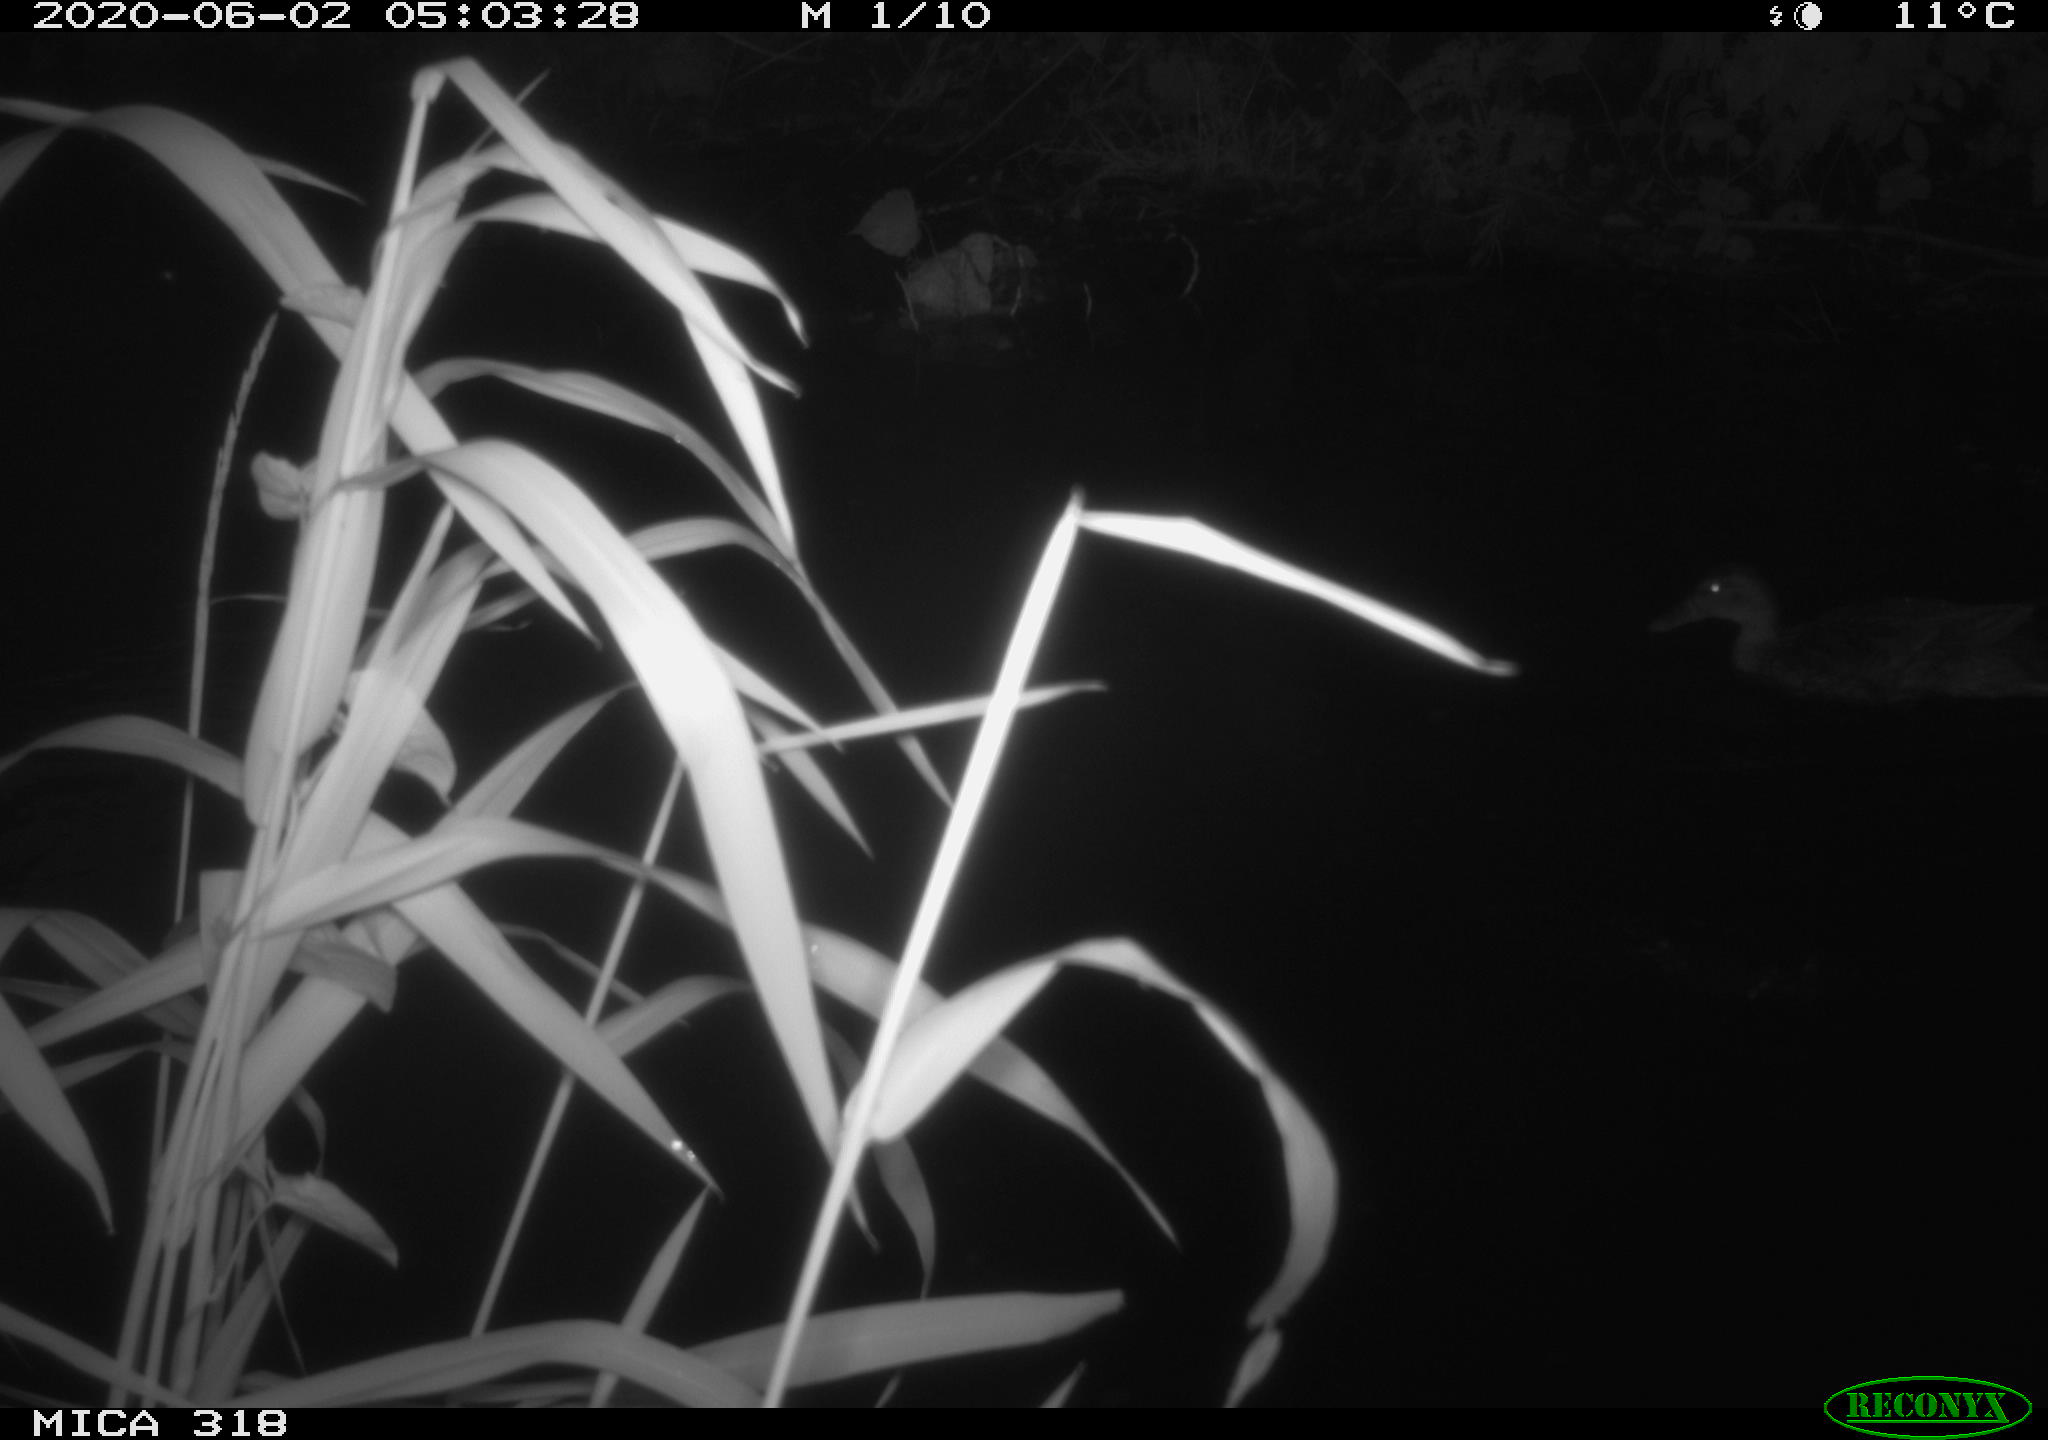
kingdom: Animalia
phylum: Chordata
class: Aves
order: Anseriformes
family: Anatidae
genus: Anas
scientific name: Anas platyrhynchos
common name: Mallard
